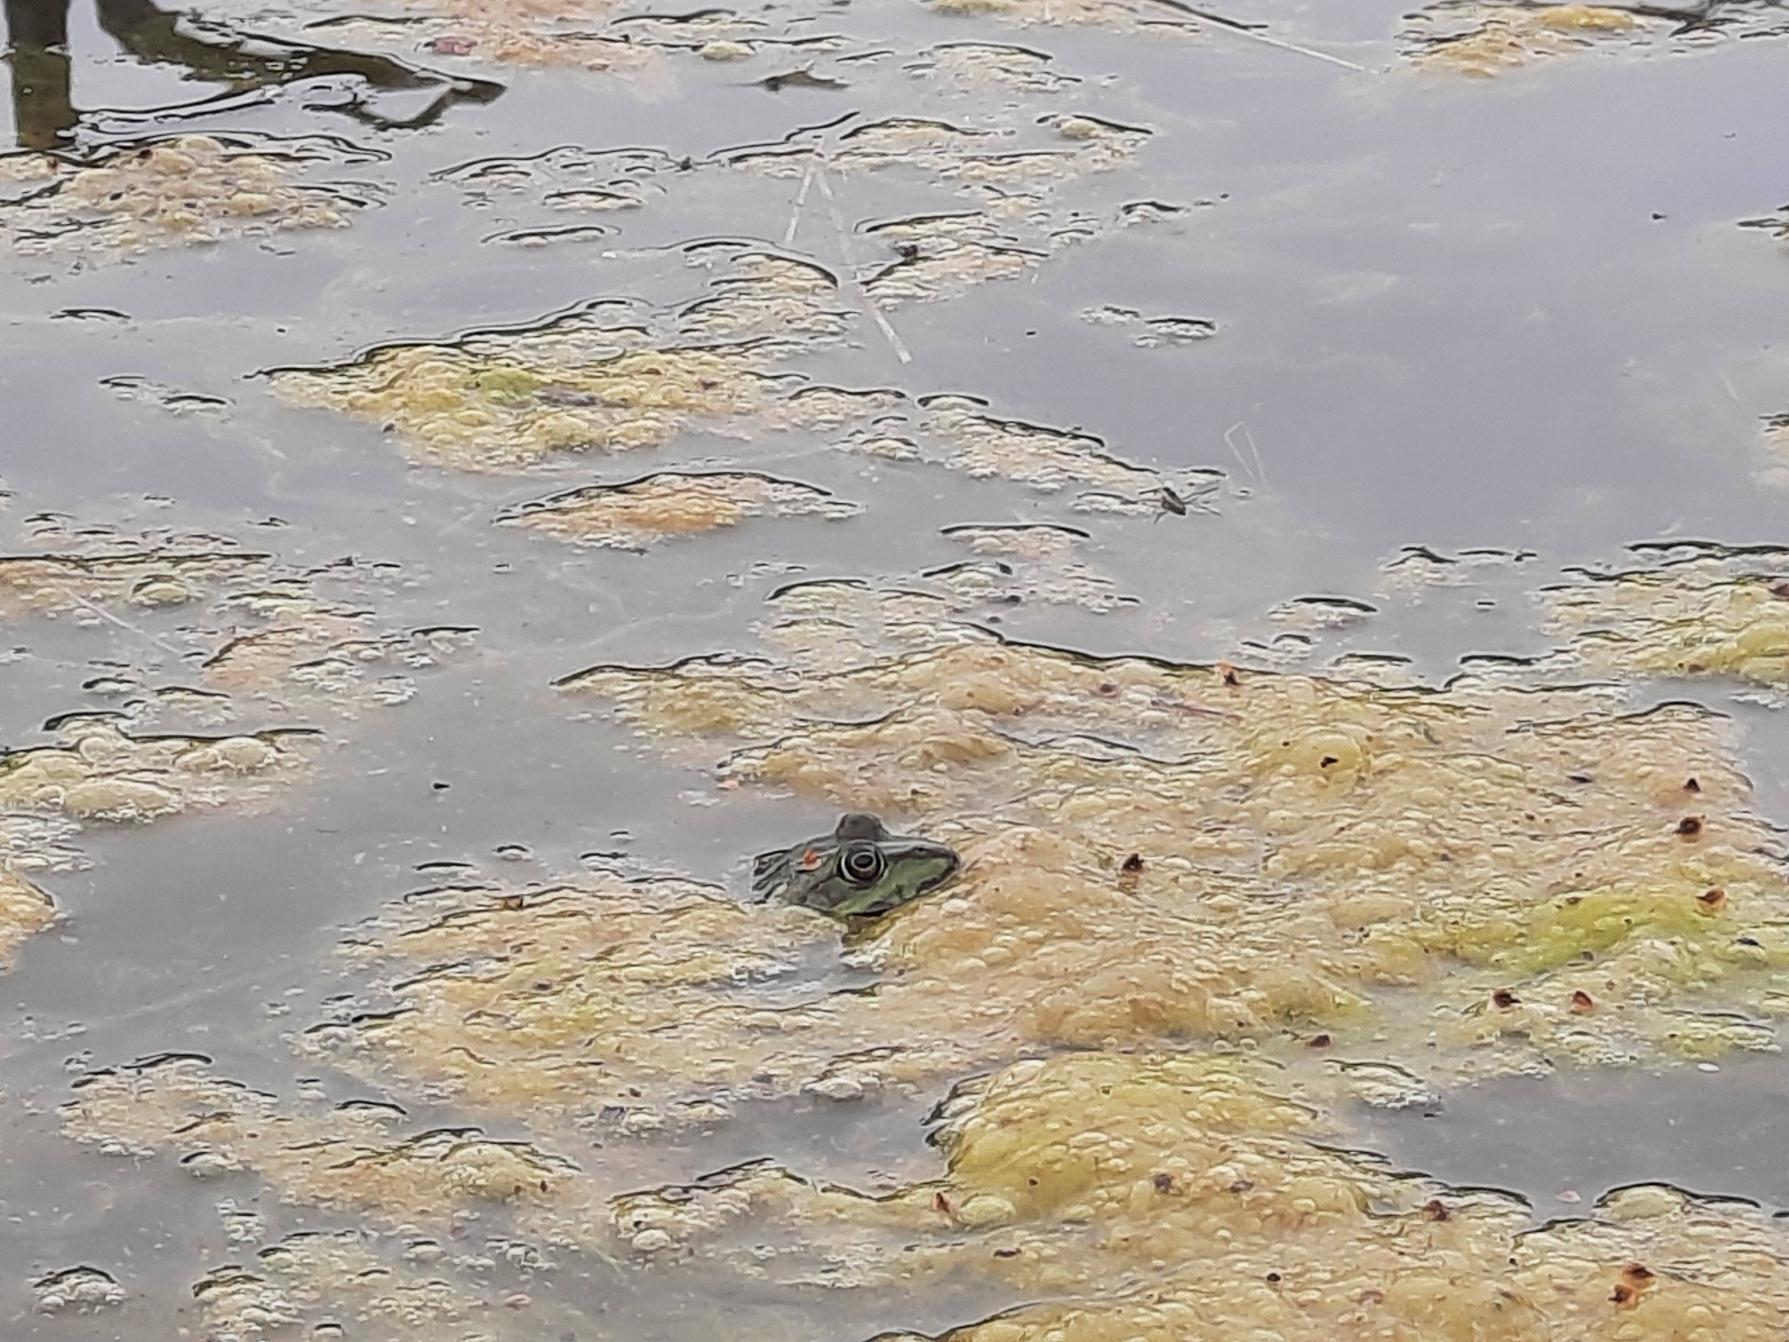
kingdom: Animalia
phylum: Chordata
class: Amphibia
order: Anura
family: Ranidae
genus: Pelophylax
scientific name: Pelophylax
